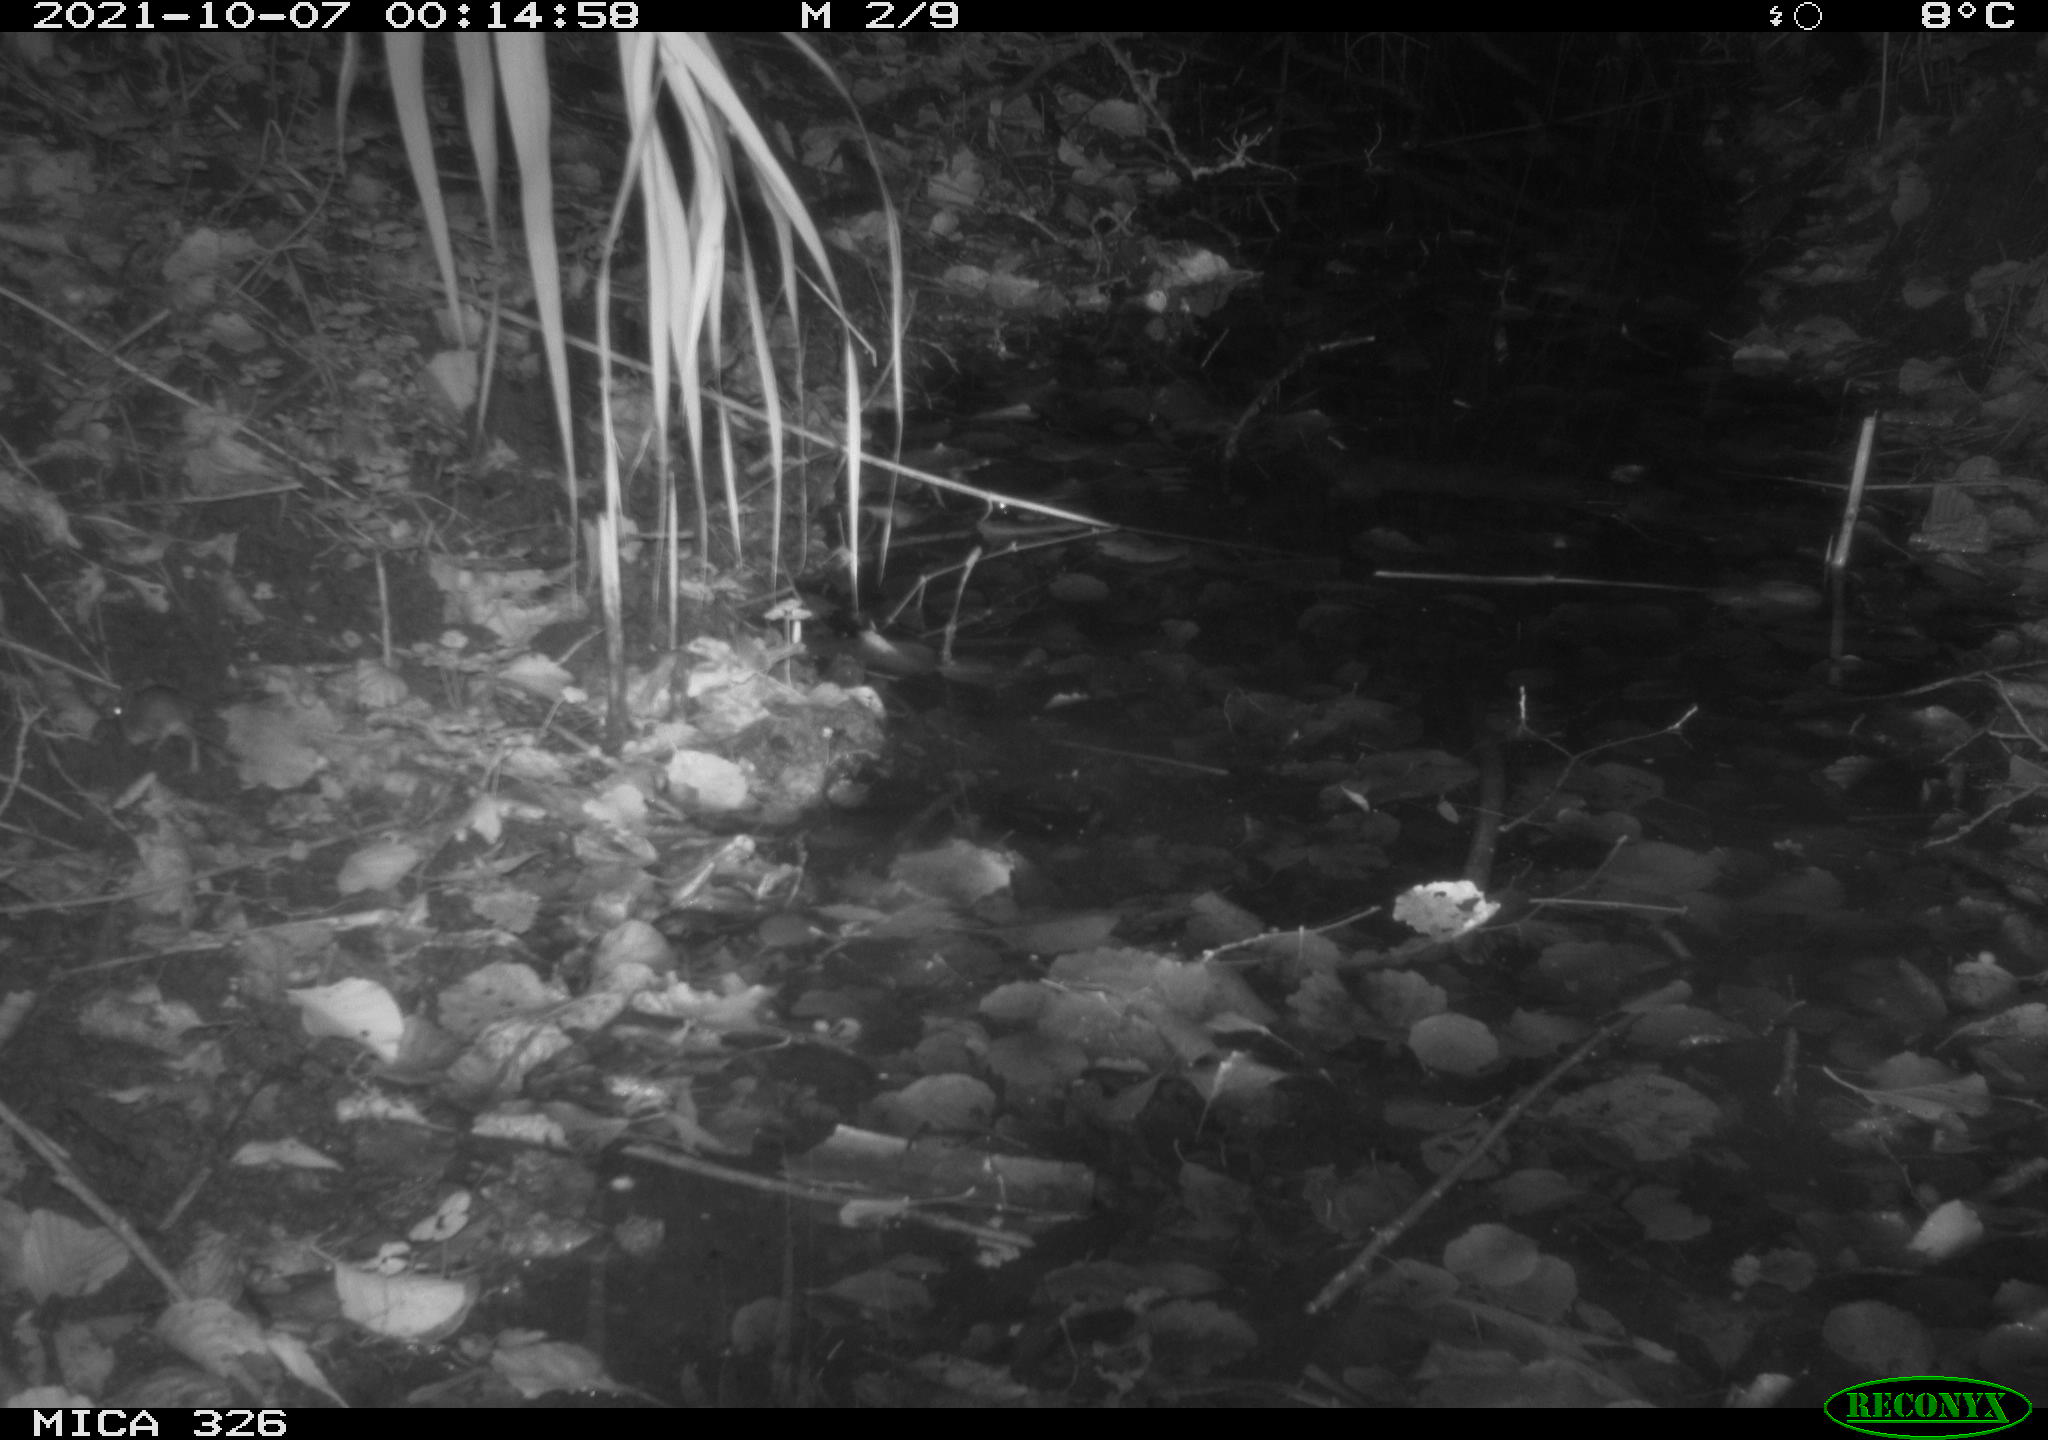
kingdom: Animalia
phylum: Chordata
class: Mammalia
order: Rodentia
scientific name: Rodentia
